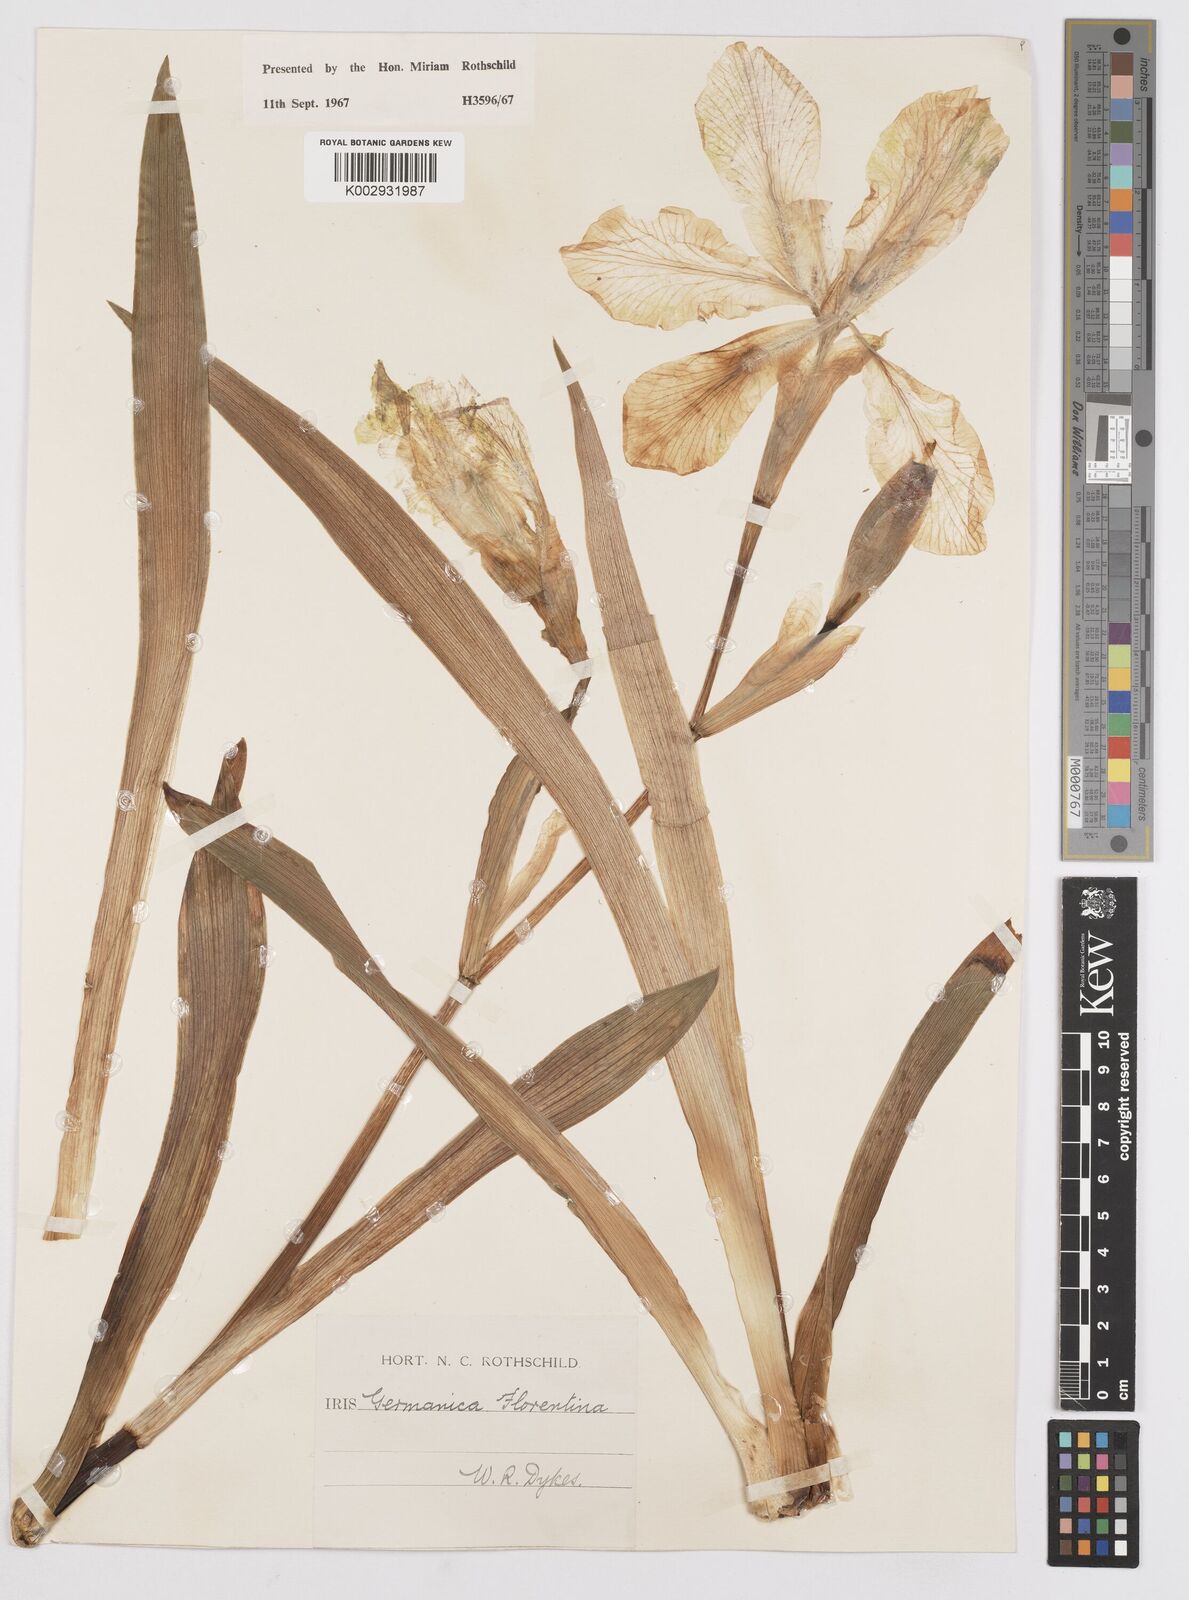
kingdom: Plantae
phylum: Tracheophyta
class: Liliopsida
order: Asparagales
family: Iridaceae
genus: Iris
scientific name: Iris
